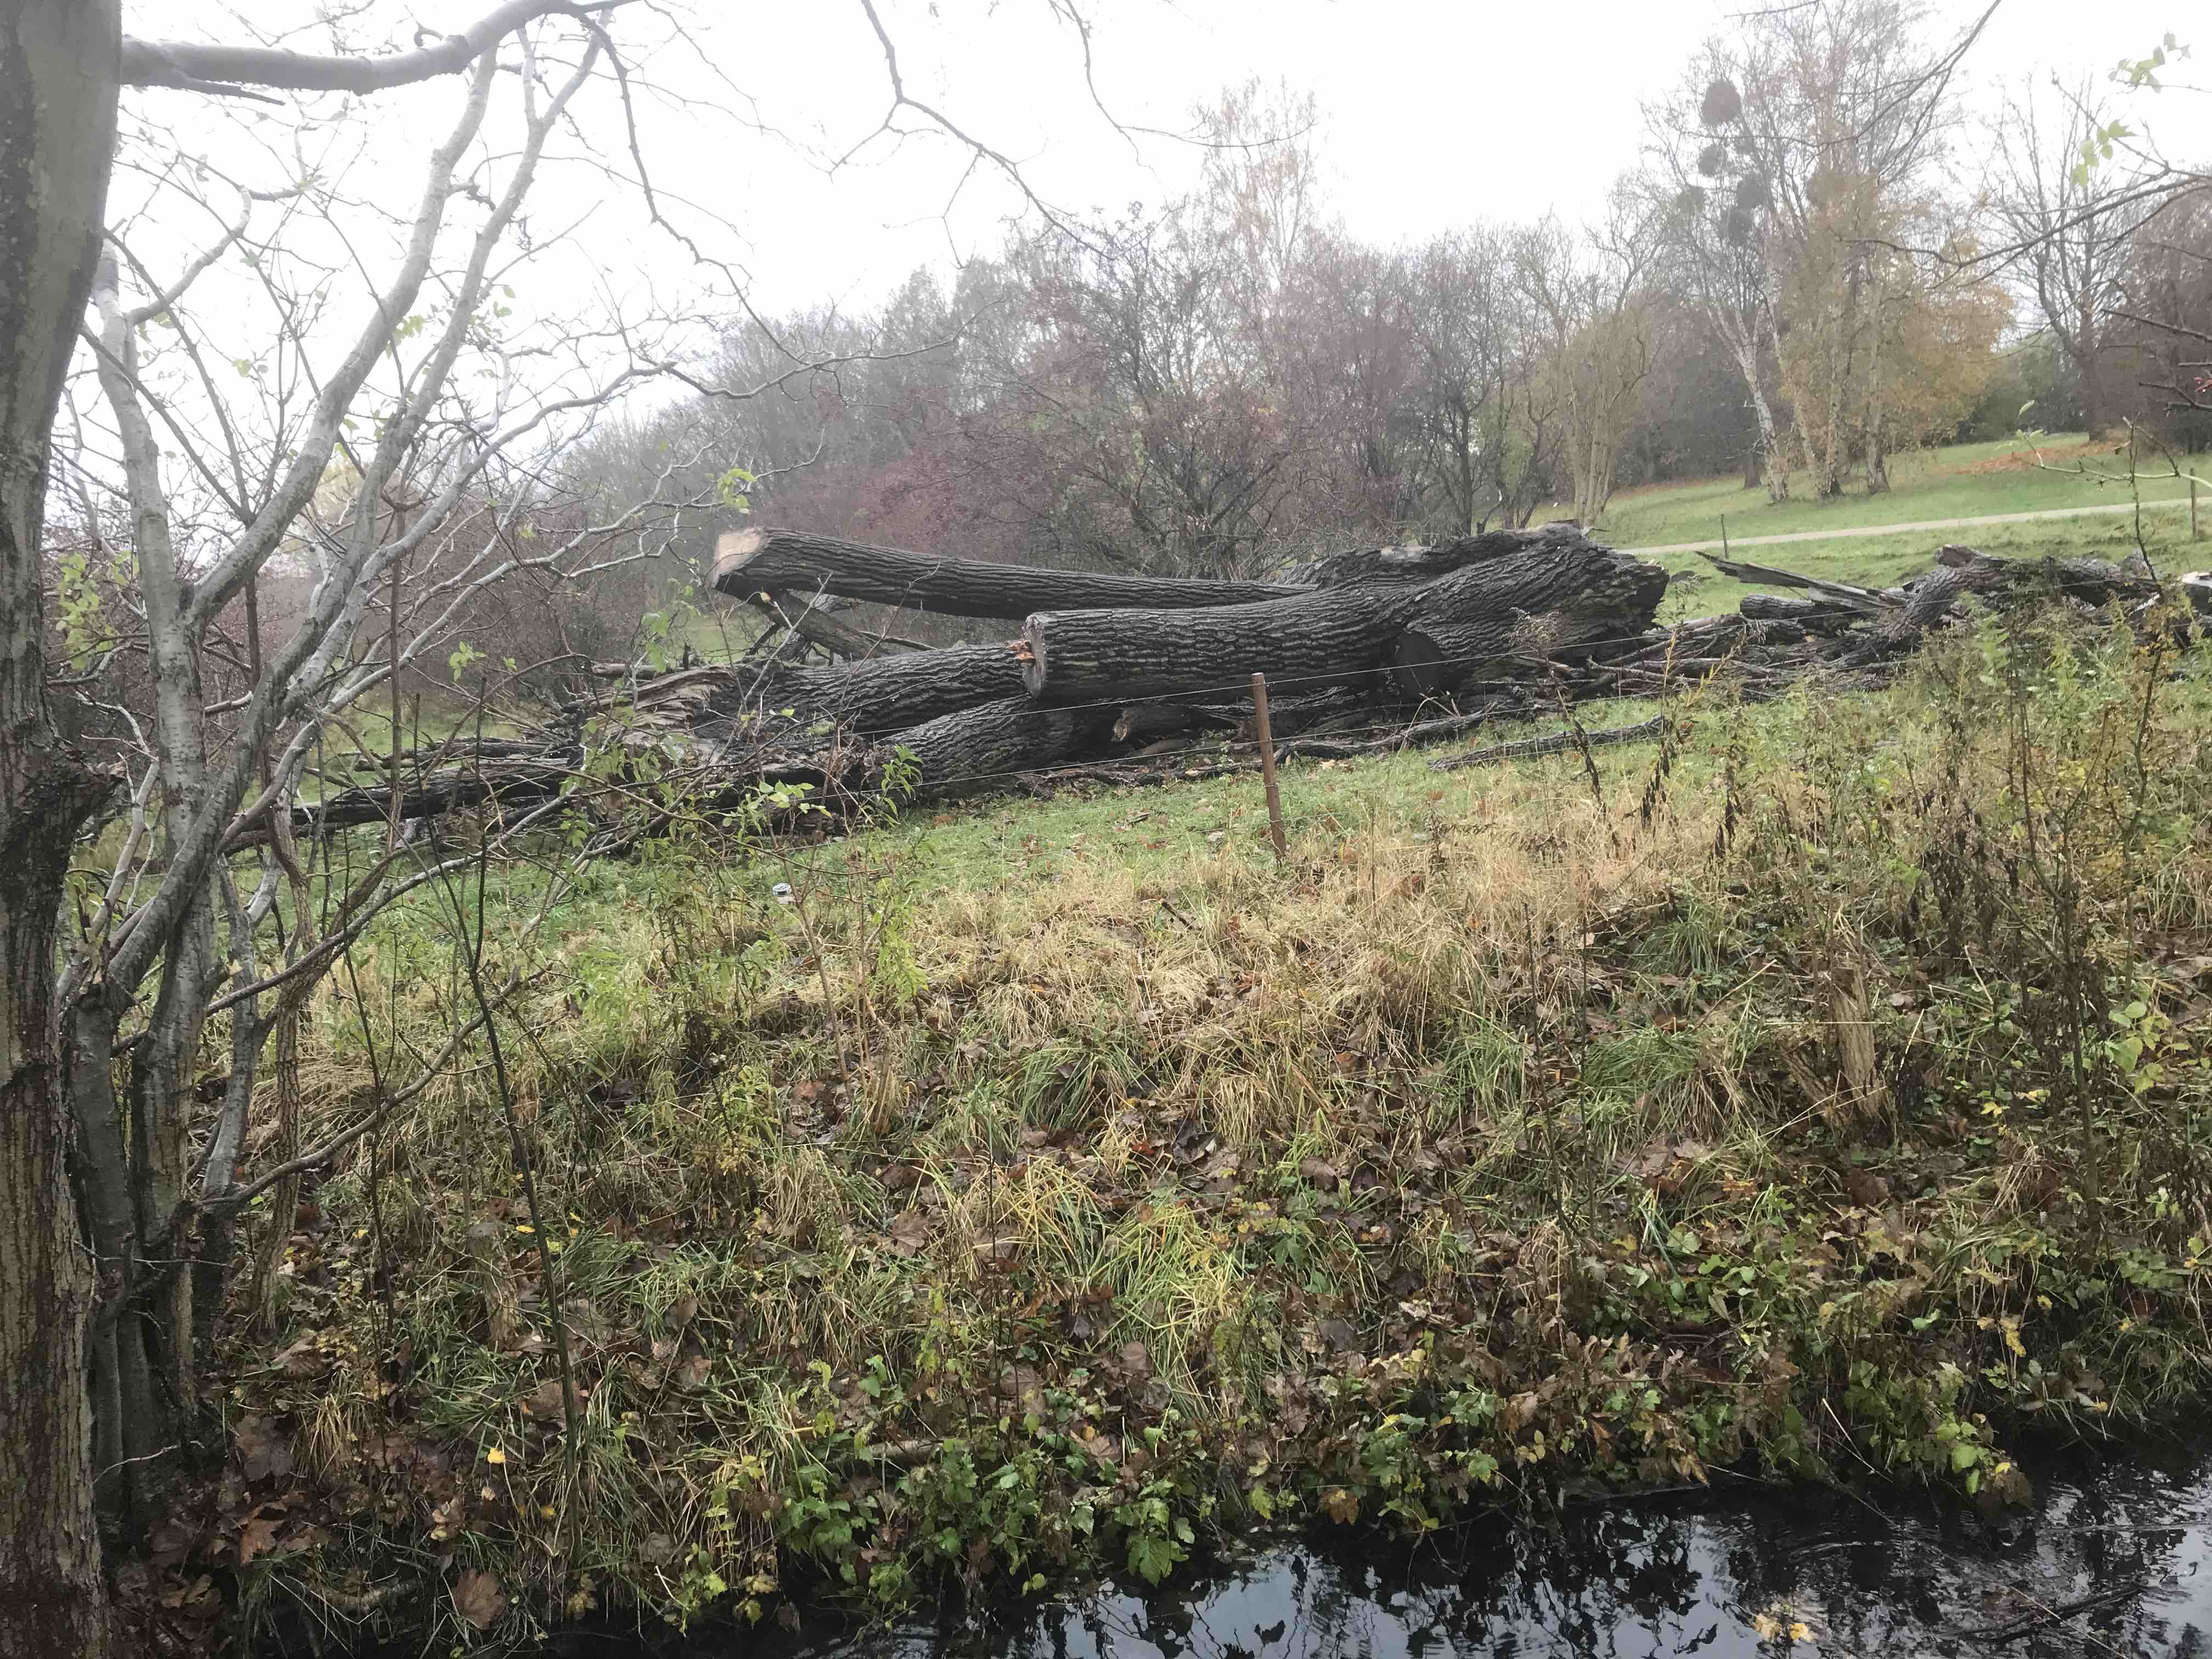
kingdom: Fungi
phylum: Basidiomycota
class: Agaricomycetes
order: Agaricales
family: Strophariaceae
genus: Pholiota
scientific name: Pholiota populnea
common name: poppel-kæmpeskælhat
